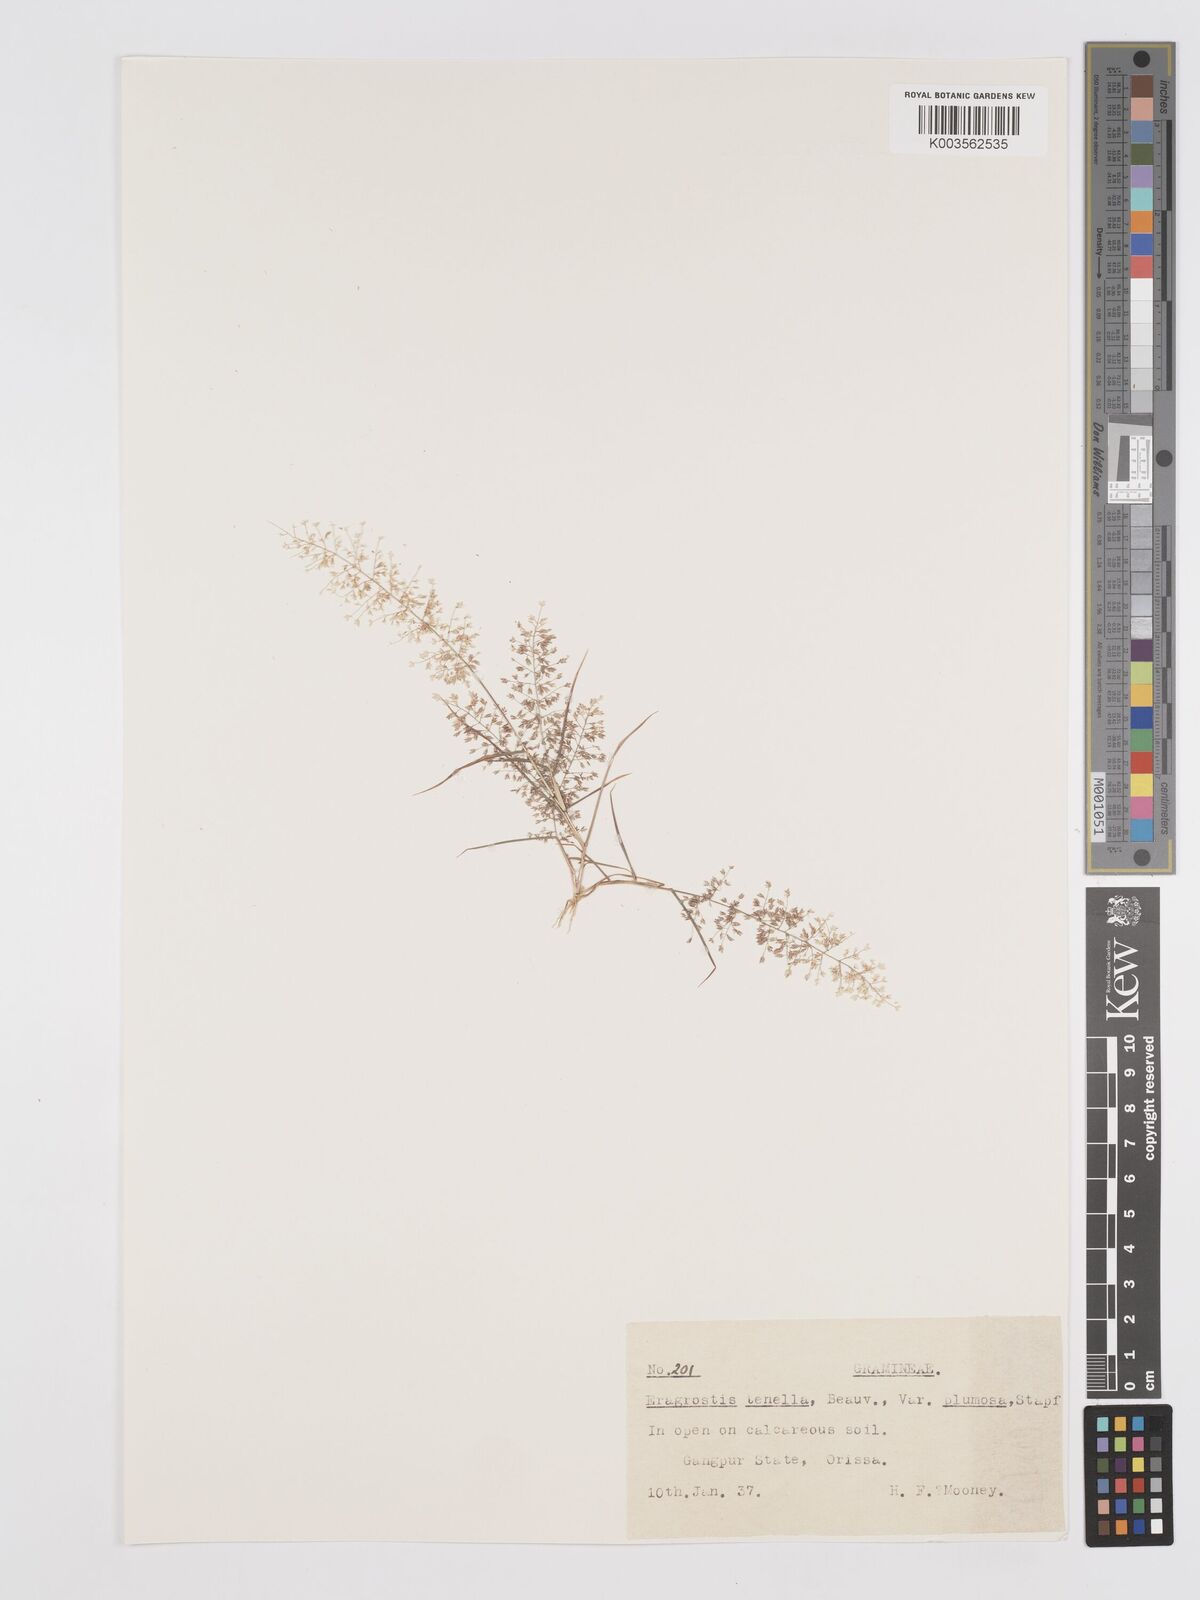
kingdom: Plantae
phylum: Tracheophyta
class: Liliopsida
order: Poales
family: Poaceae
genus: Eragrostis
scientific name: Eragrostis tenella
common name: Japanese lovegrass
